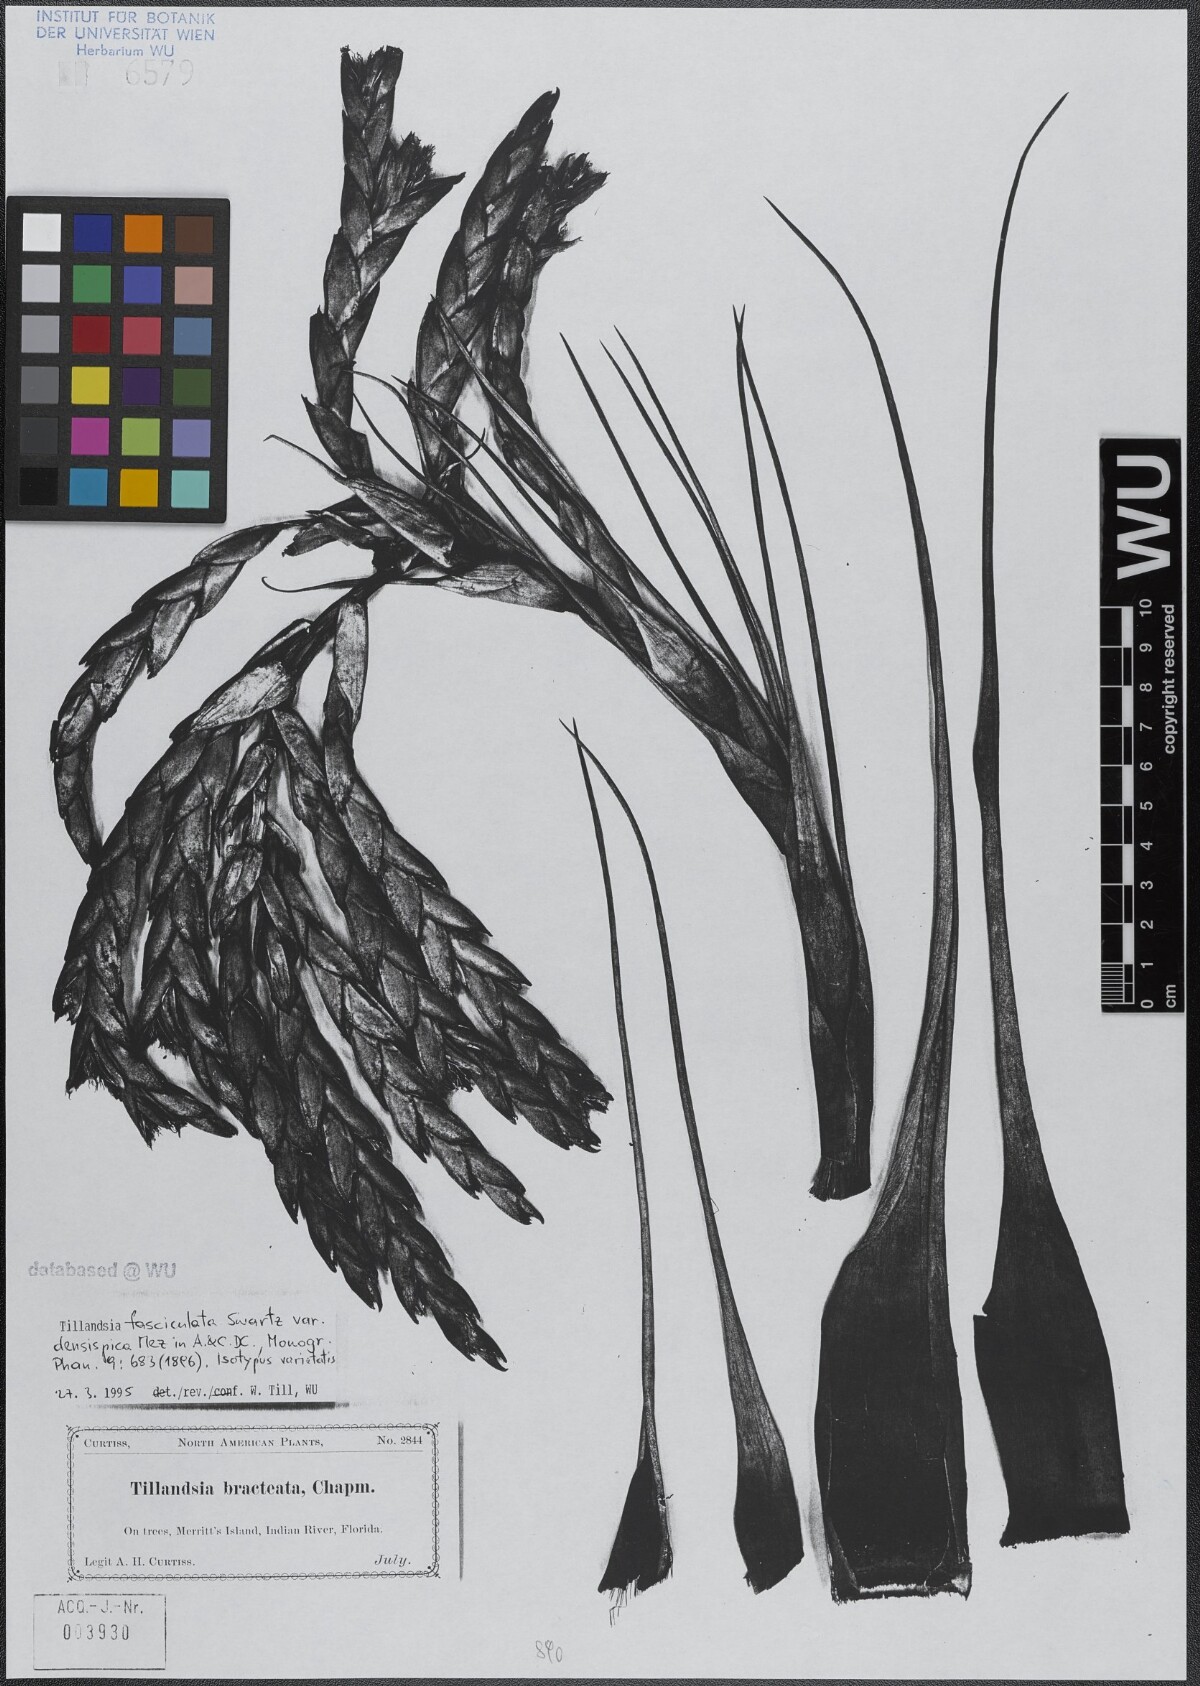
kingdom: Plantae
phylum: Tracheophyta
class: Liliopsida
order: Poales
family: Bromeliaceae
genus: Tillandsia
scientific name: Tillandsia fasciculata
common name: Giant airplant
